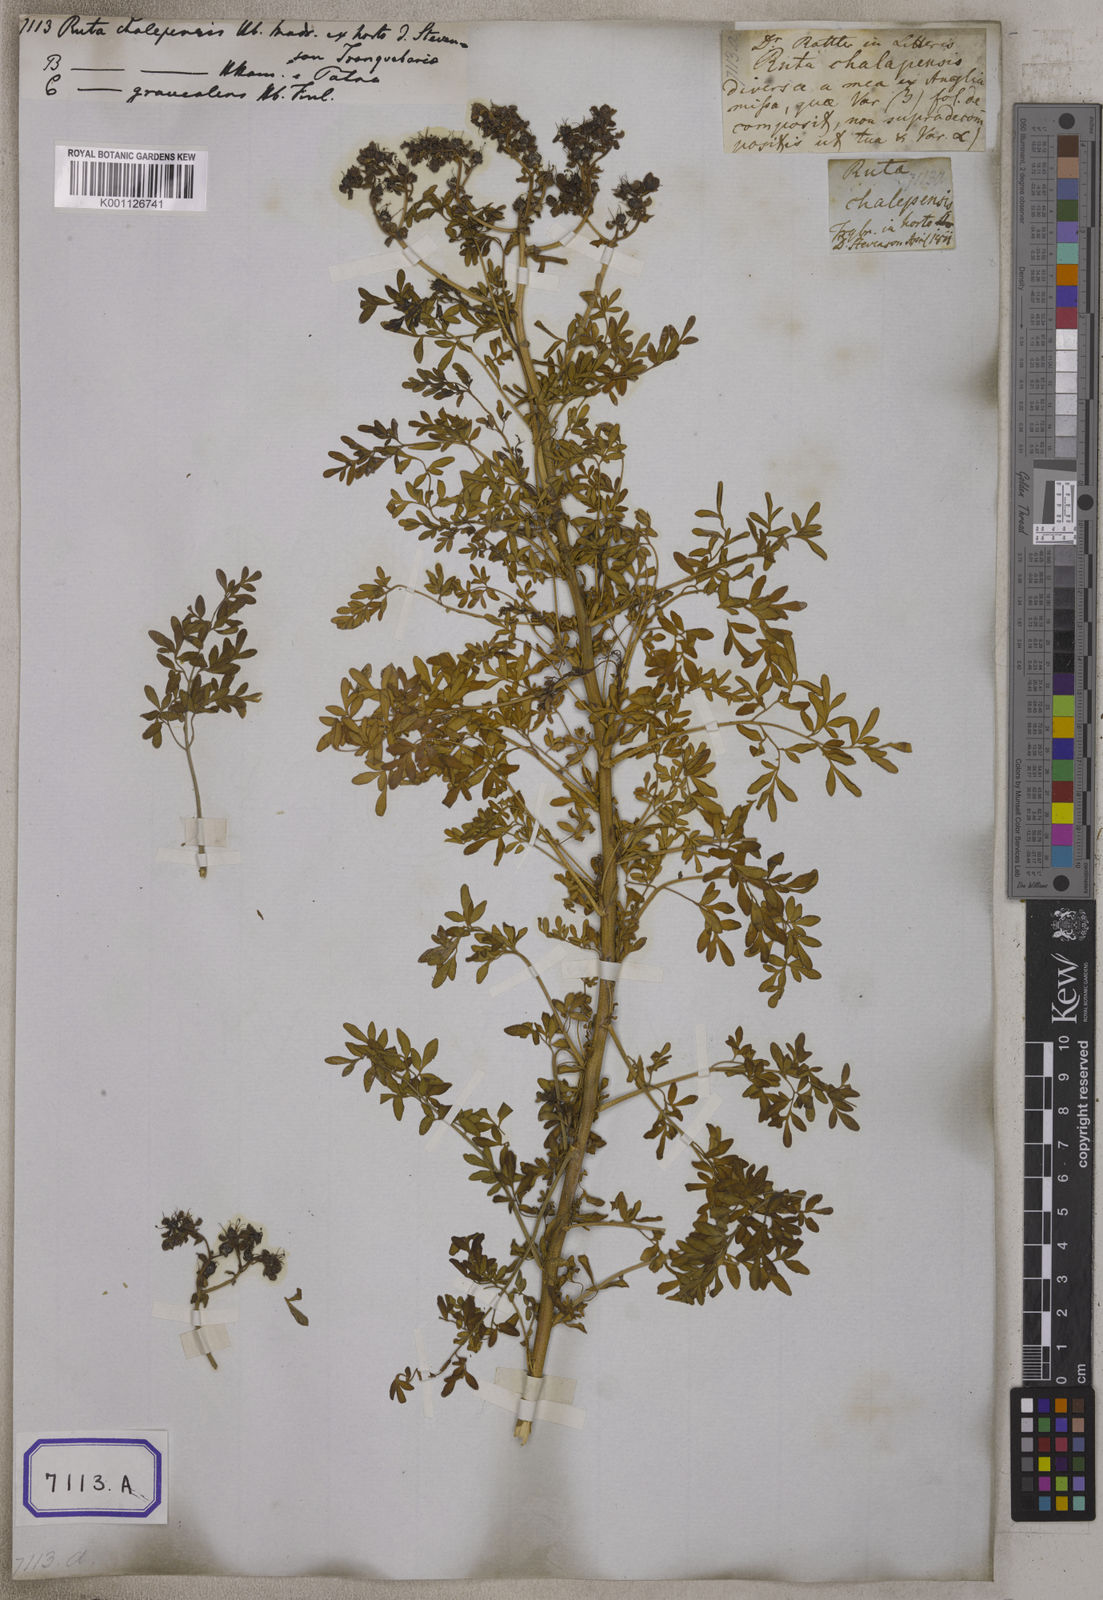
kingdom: Plantae
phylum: Tracheophyta
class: Magnoliopsida
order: Sapindales
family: Rutaceae
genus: Ruta
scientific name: Ruta
